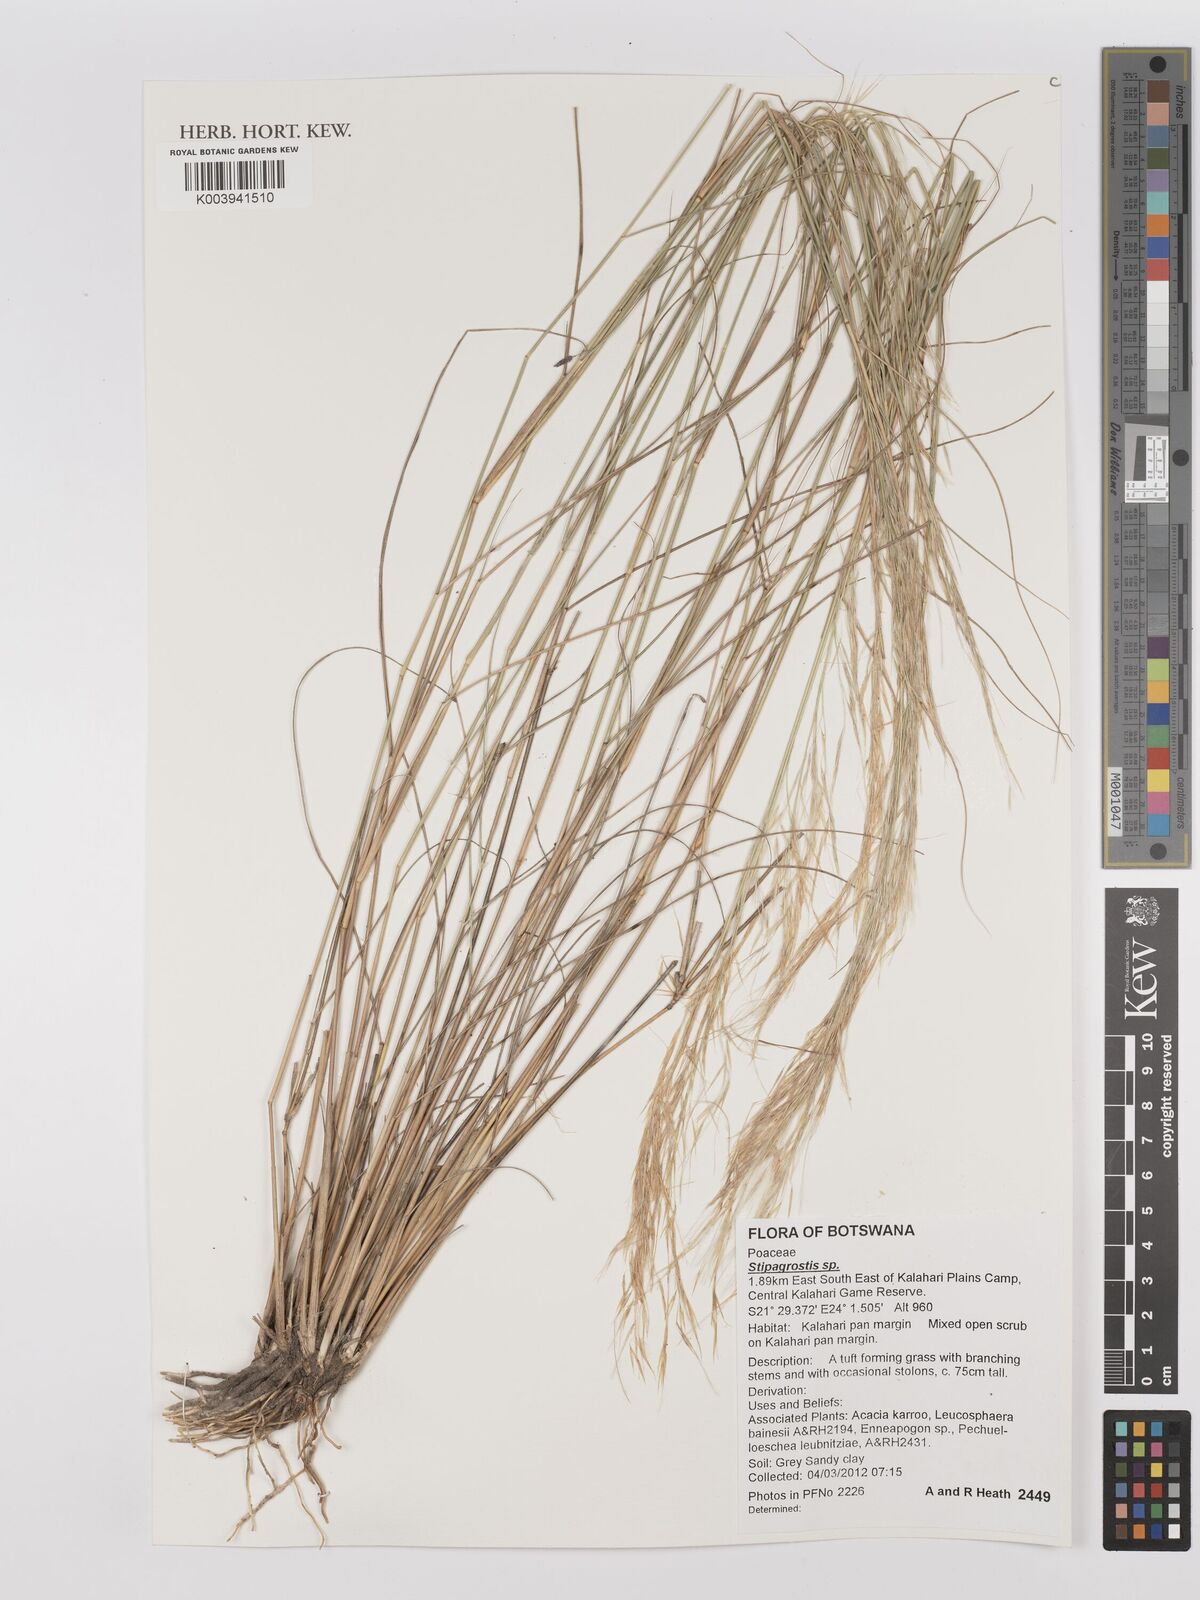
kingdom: Plantae
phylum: Tracheophyta
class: Liliopsida
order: Poales
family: Poaceae
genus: Stipagrostis
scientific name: Stipagrostis
